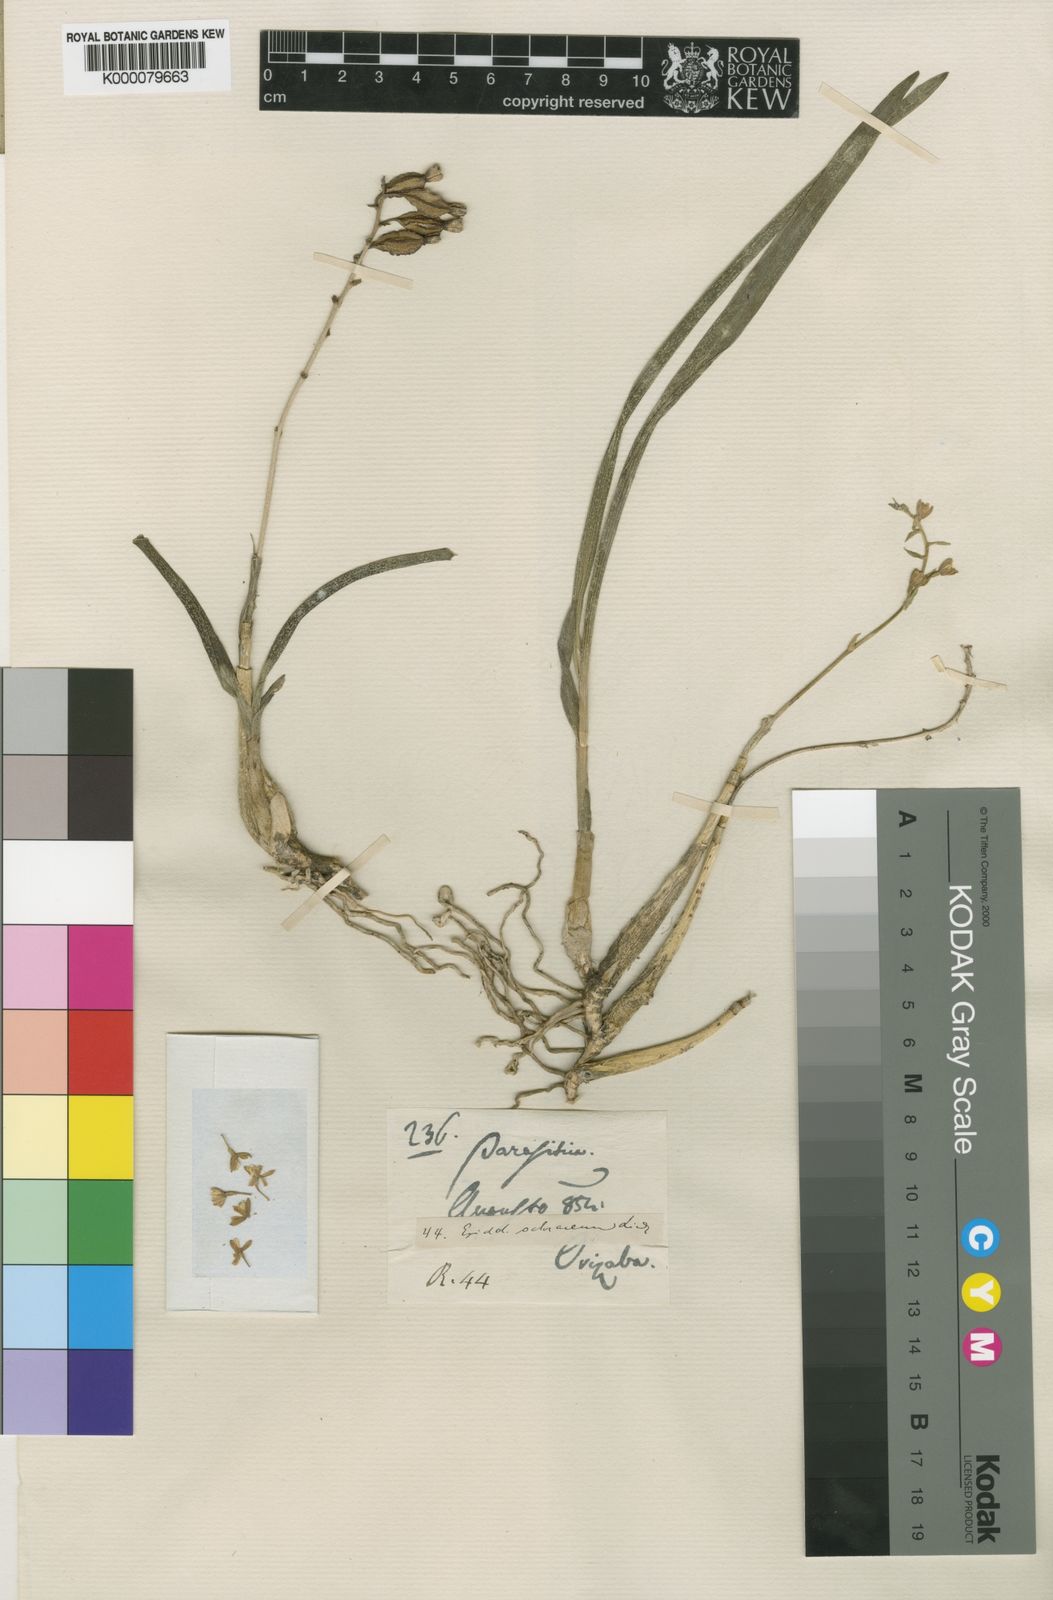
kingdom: Plantae
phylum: Tracheophyta
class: Liliopsida
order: Asparagales
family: Orchidaceae
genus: Prosthechea
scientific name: Prosthechea ochracea
